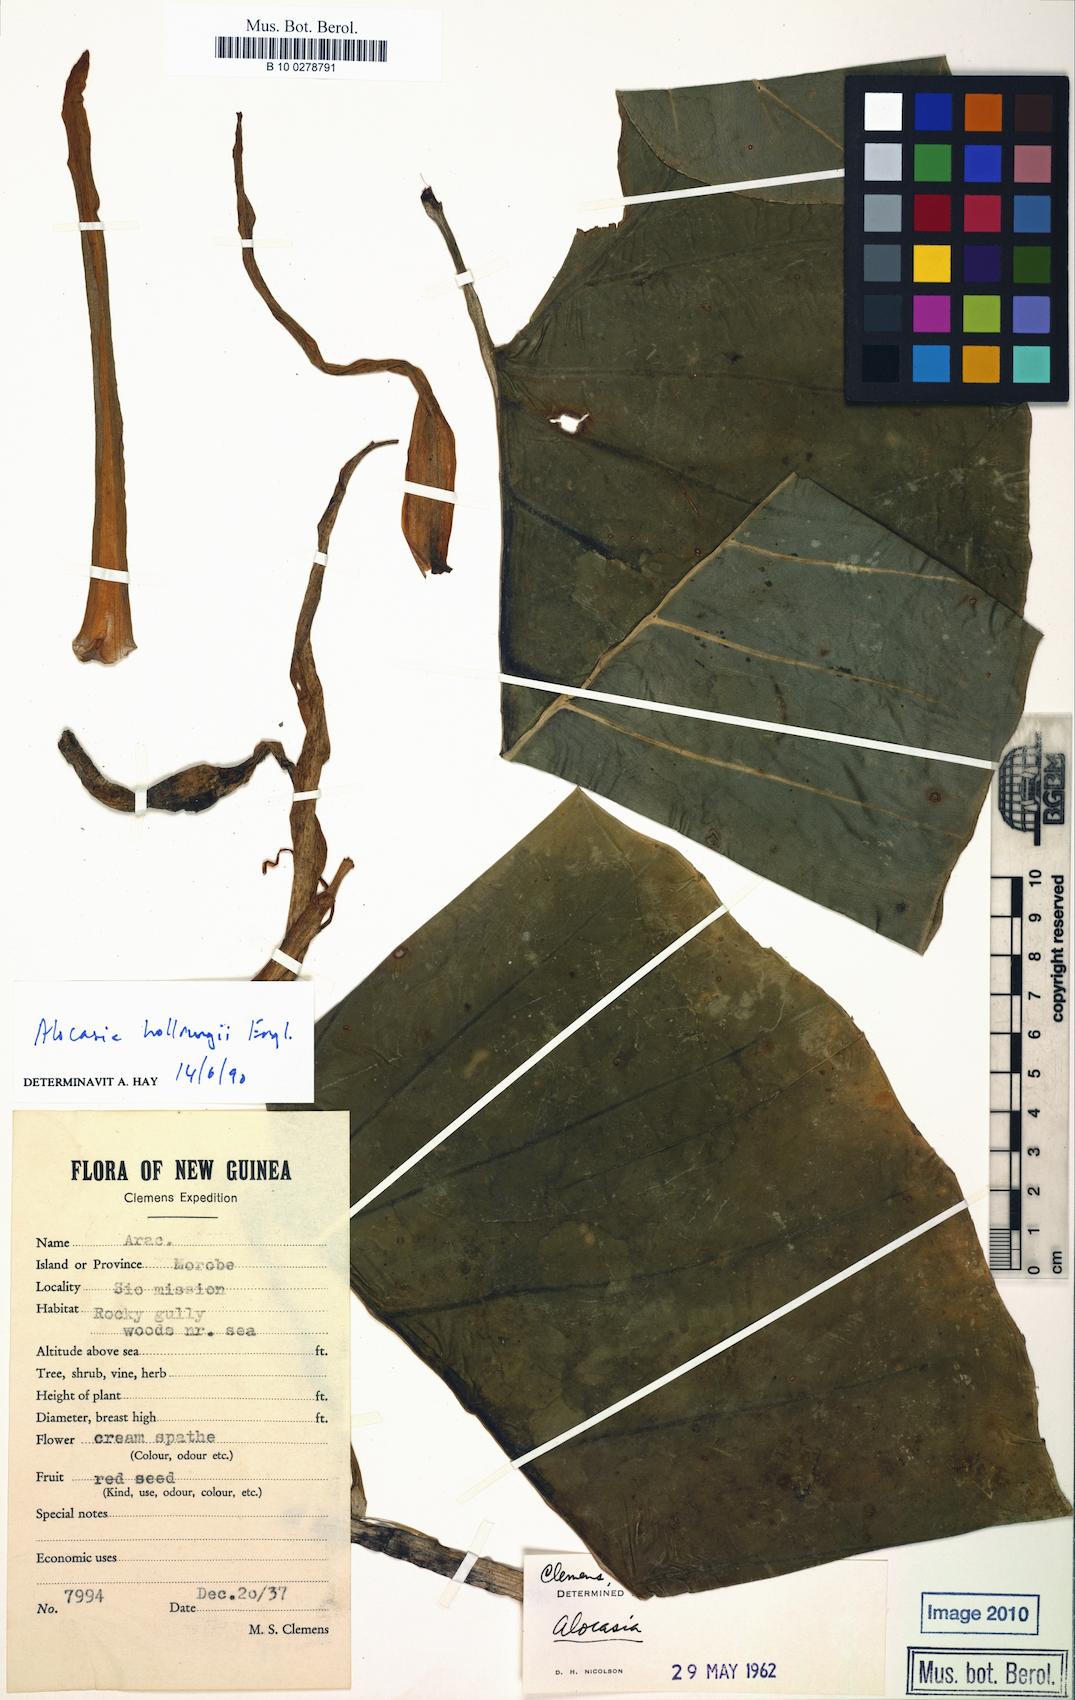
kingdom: Plantae
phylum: Tracheophyta
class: Liliopsida
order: Alismatales
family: Araceae
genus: Alocasia
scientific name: Alocasia hollrungii
